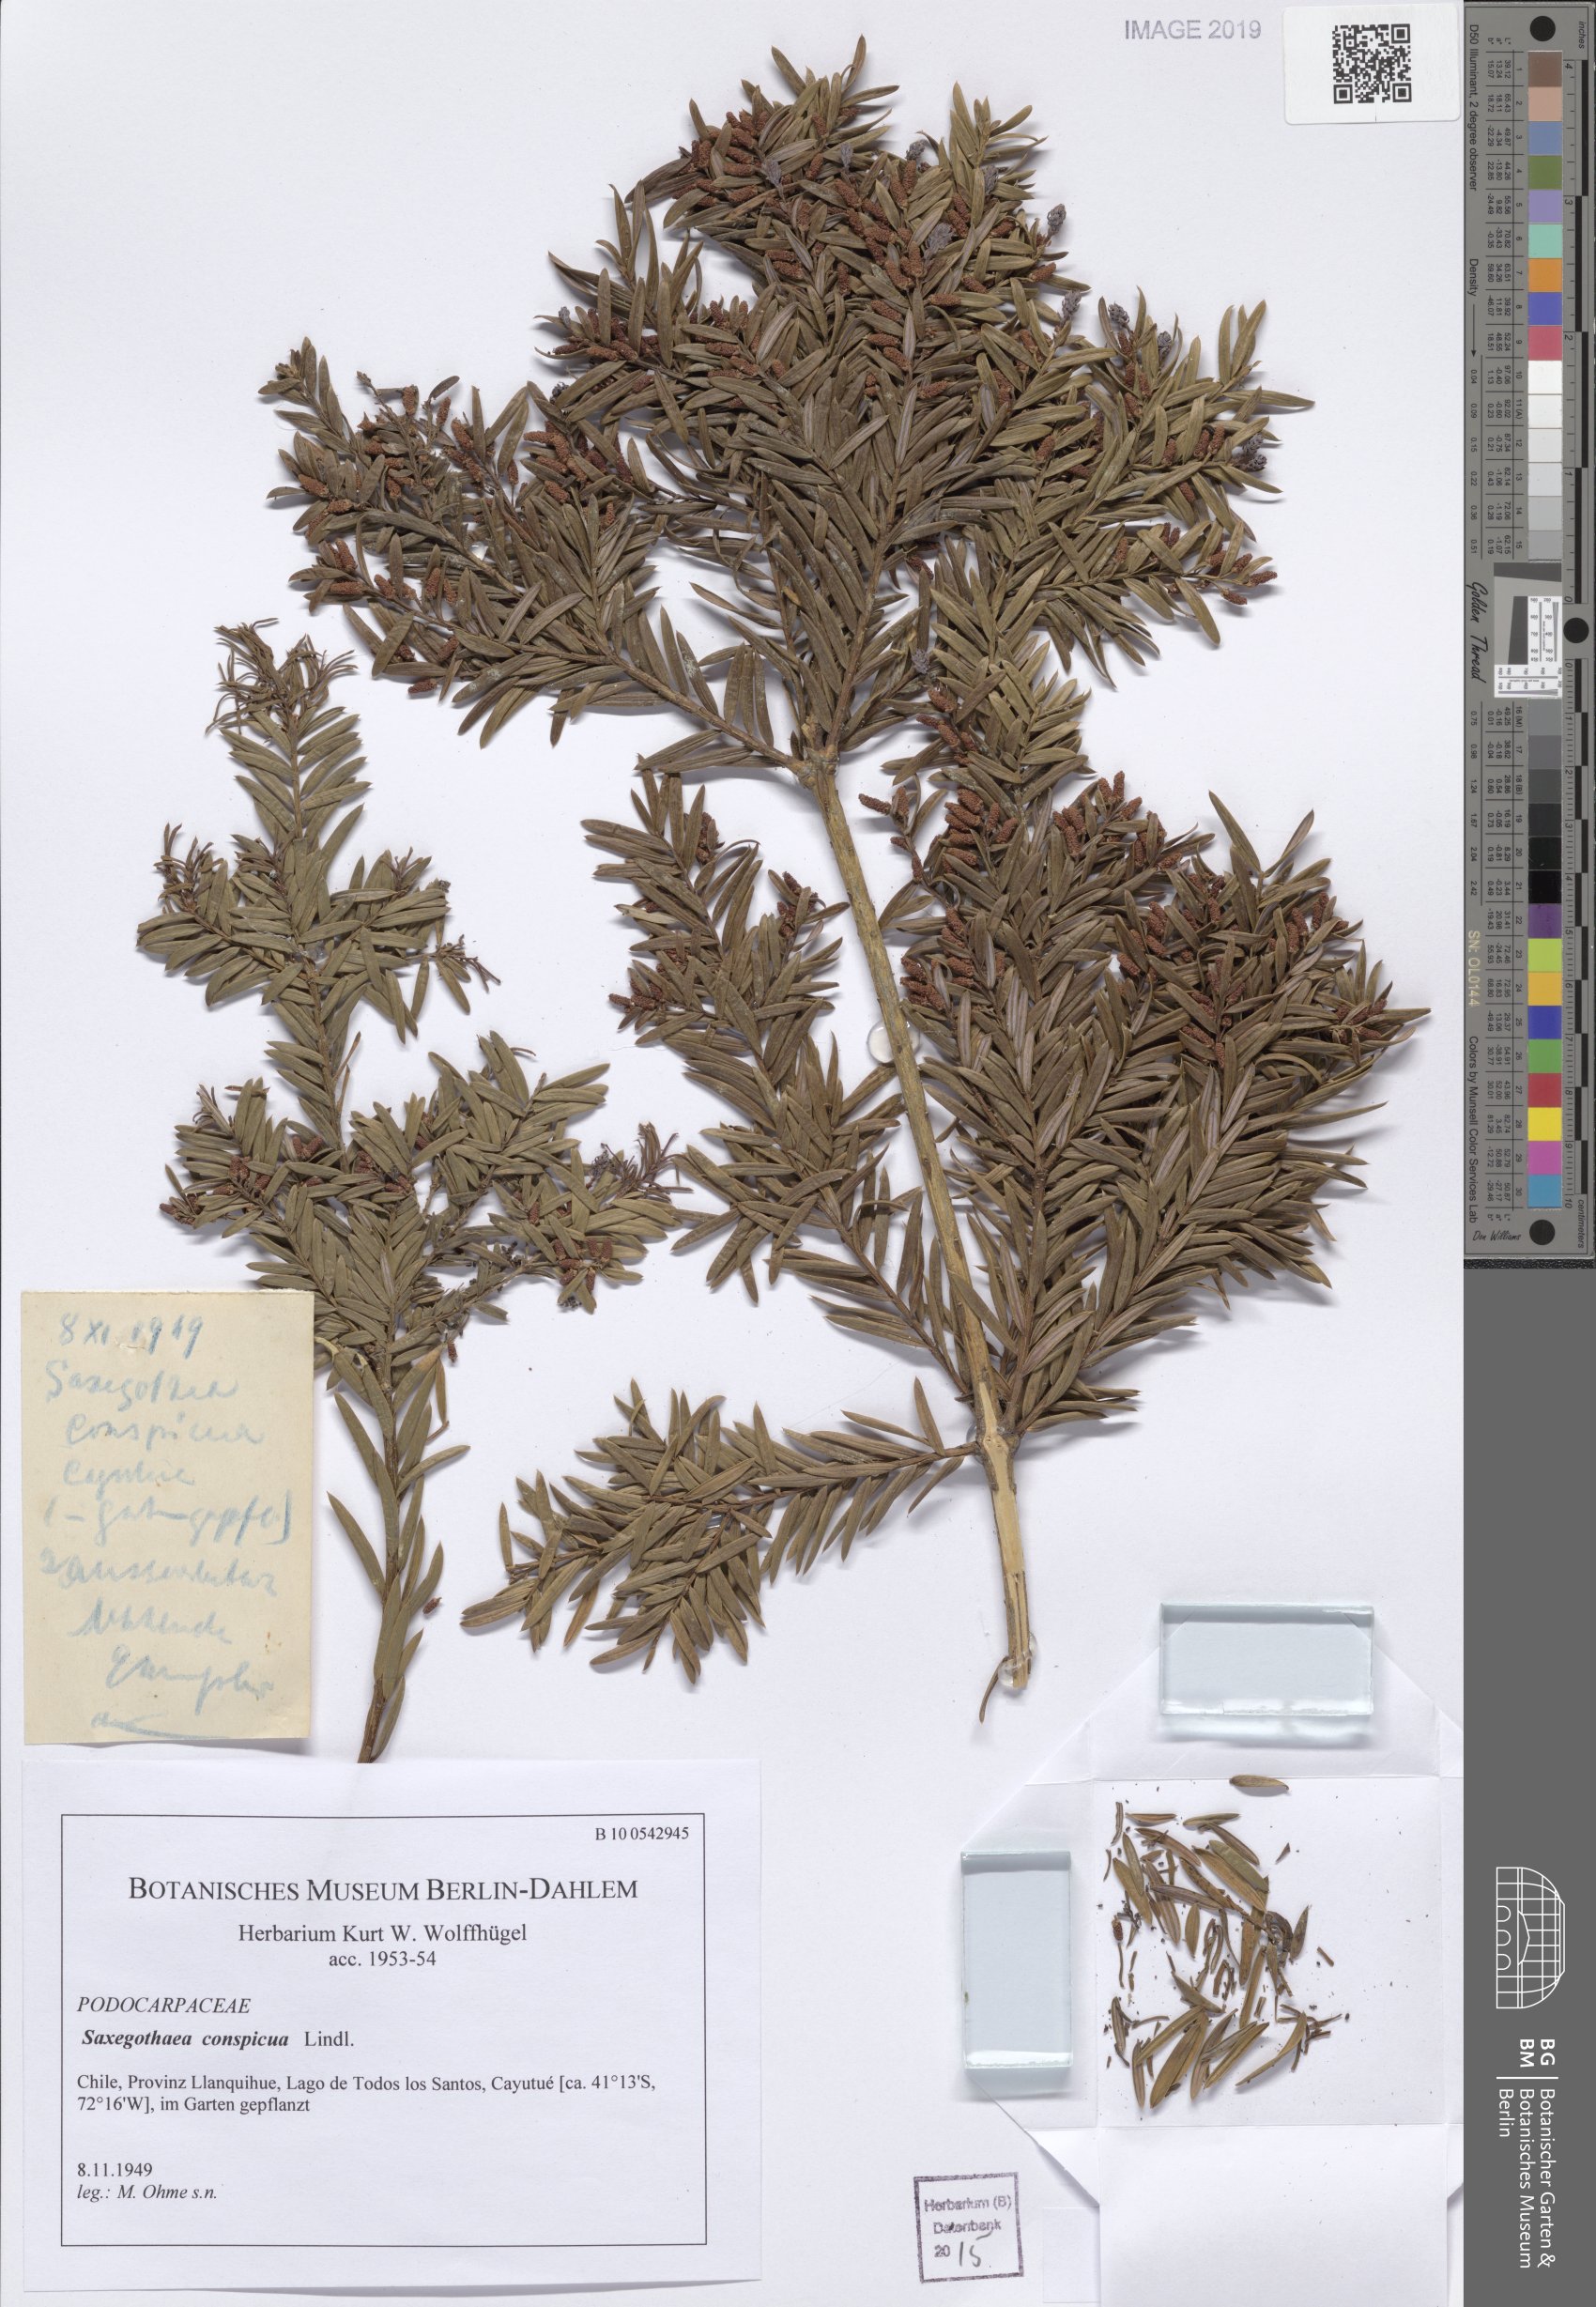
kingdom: Plantae
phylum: Tracheophyta
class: Pinopsida
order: Pinales
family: Podocarpaceae
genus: Saxegothaea
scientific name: Saxegothaea conspicua
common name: Prince albert's yew
